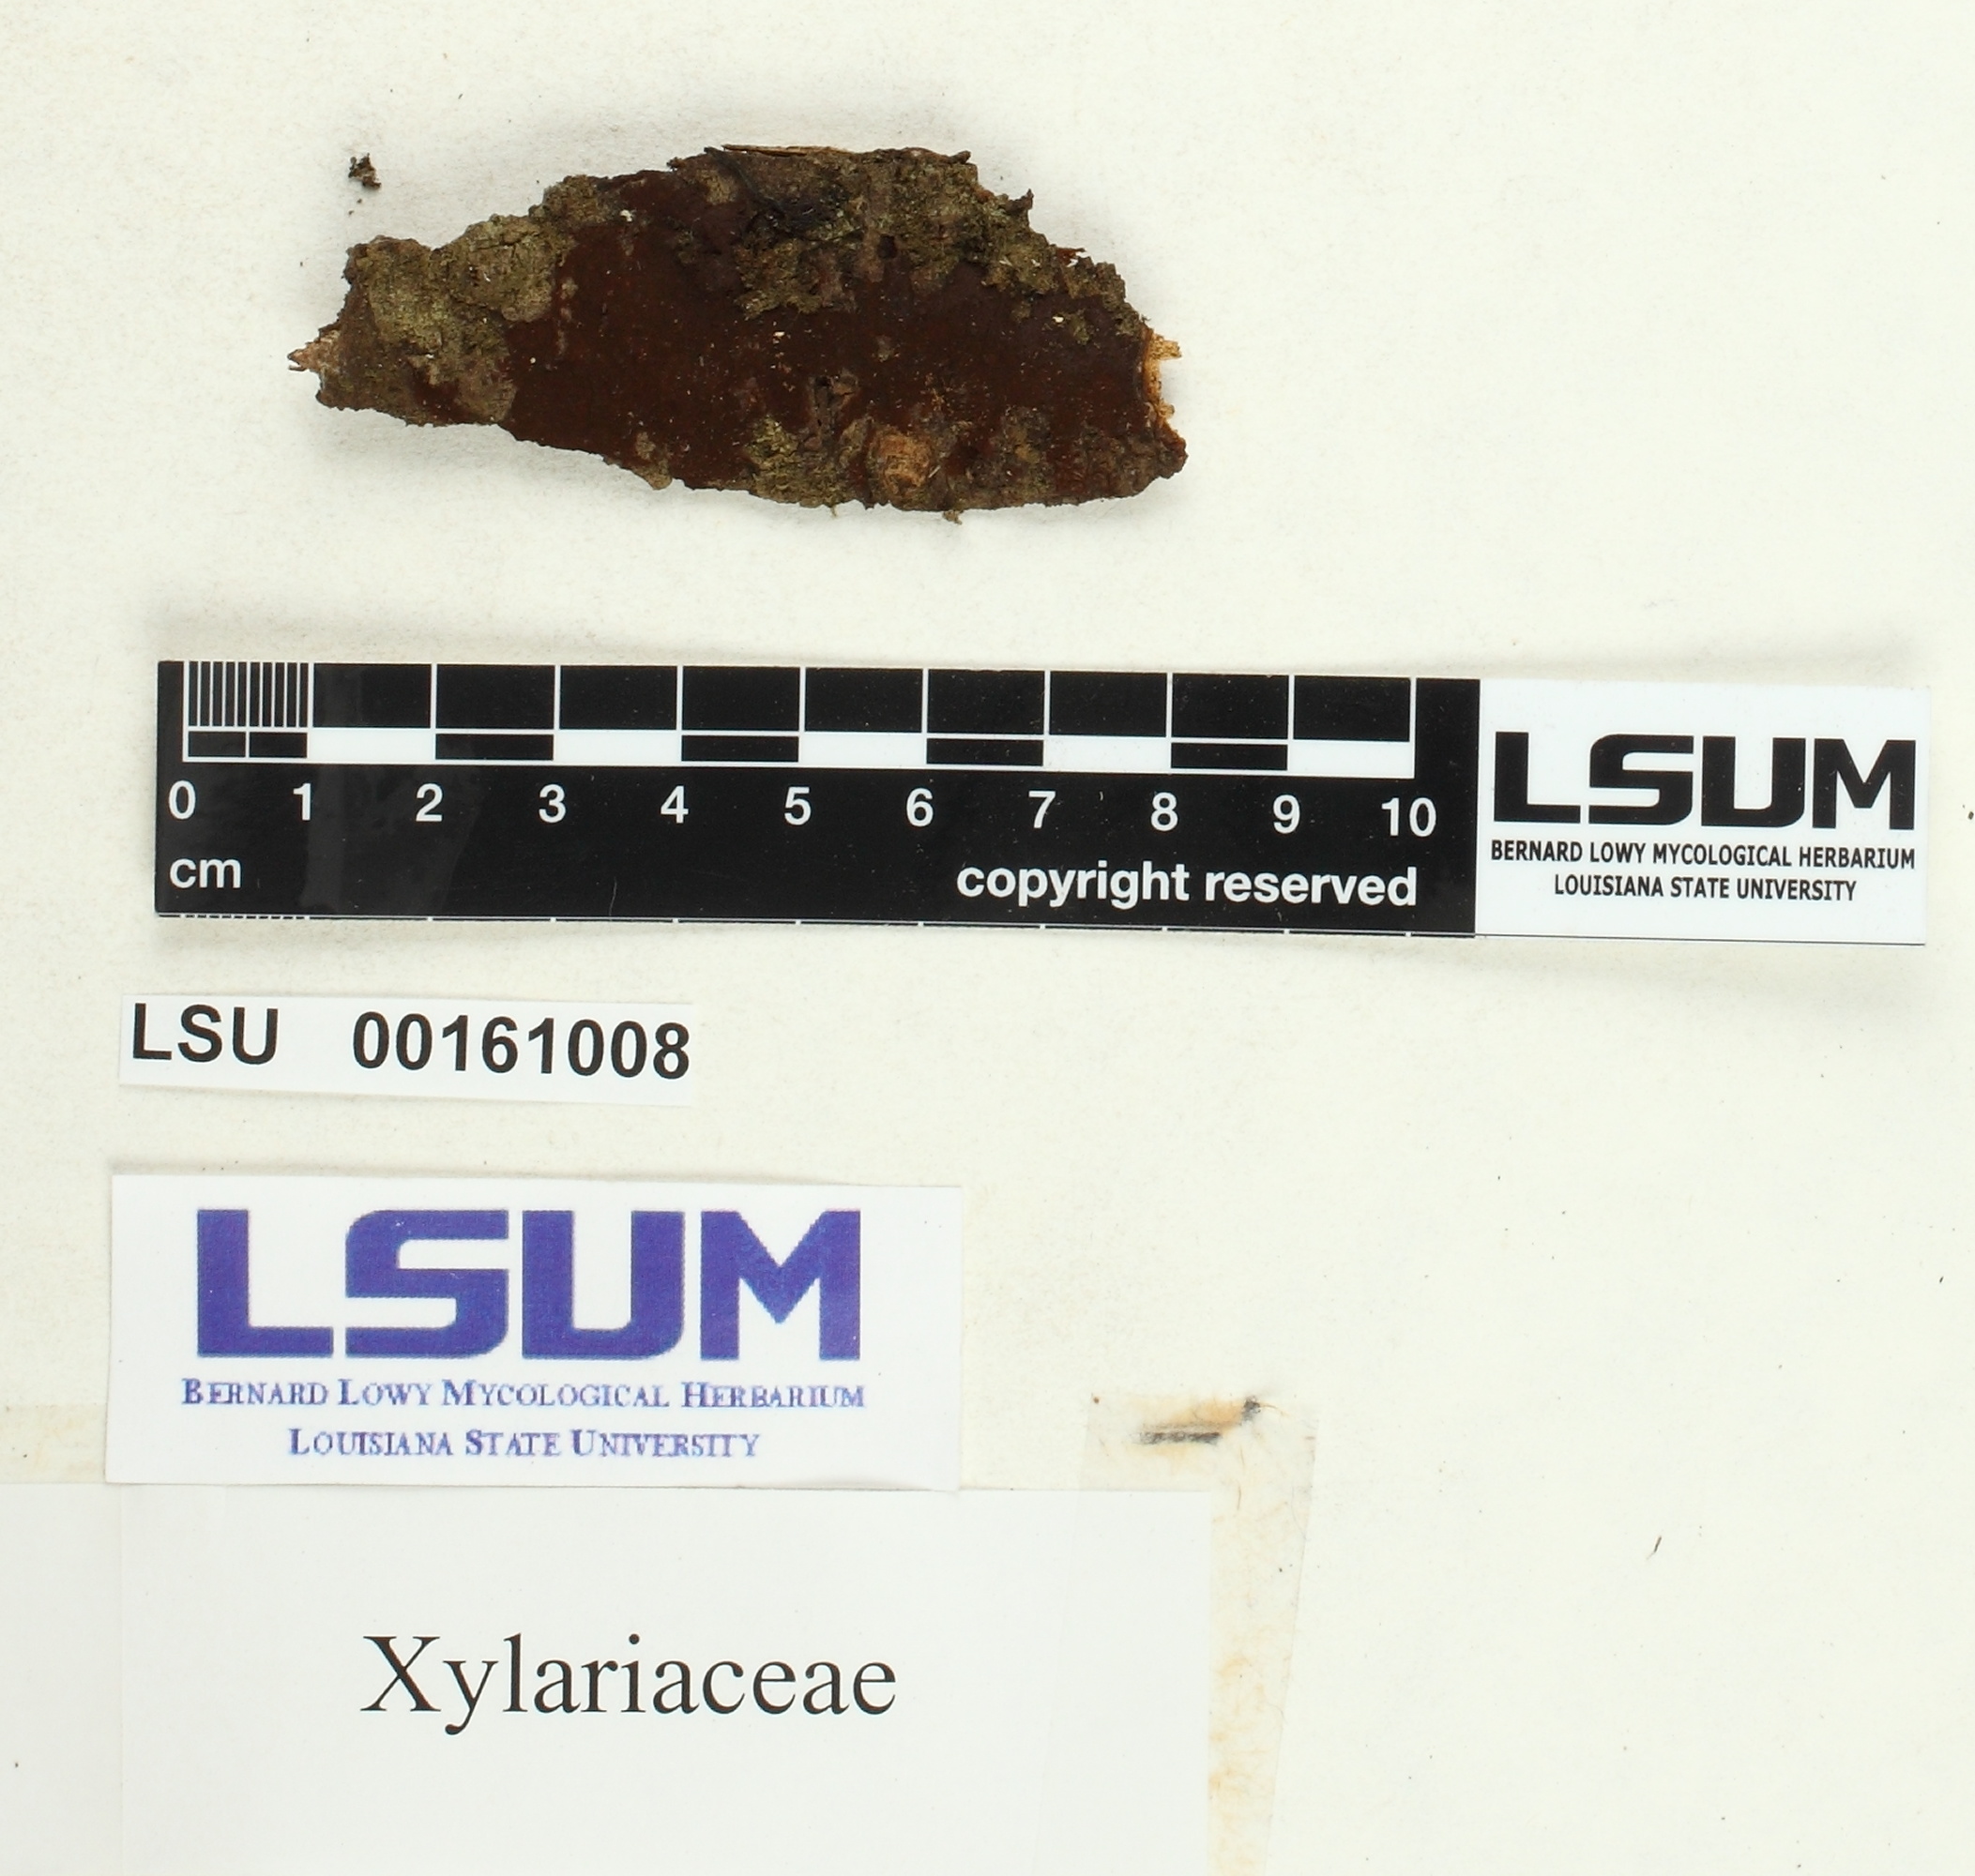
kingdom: Fungi
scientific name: Fungi
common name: Fungi
